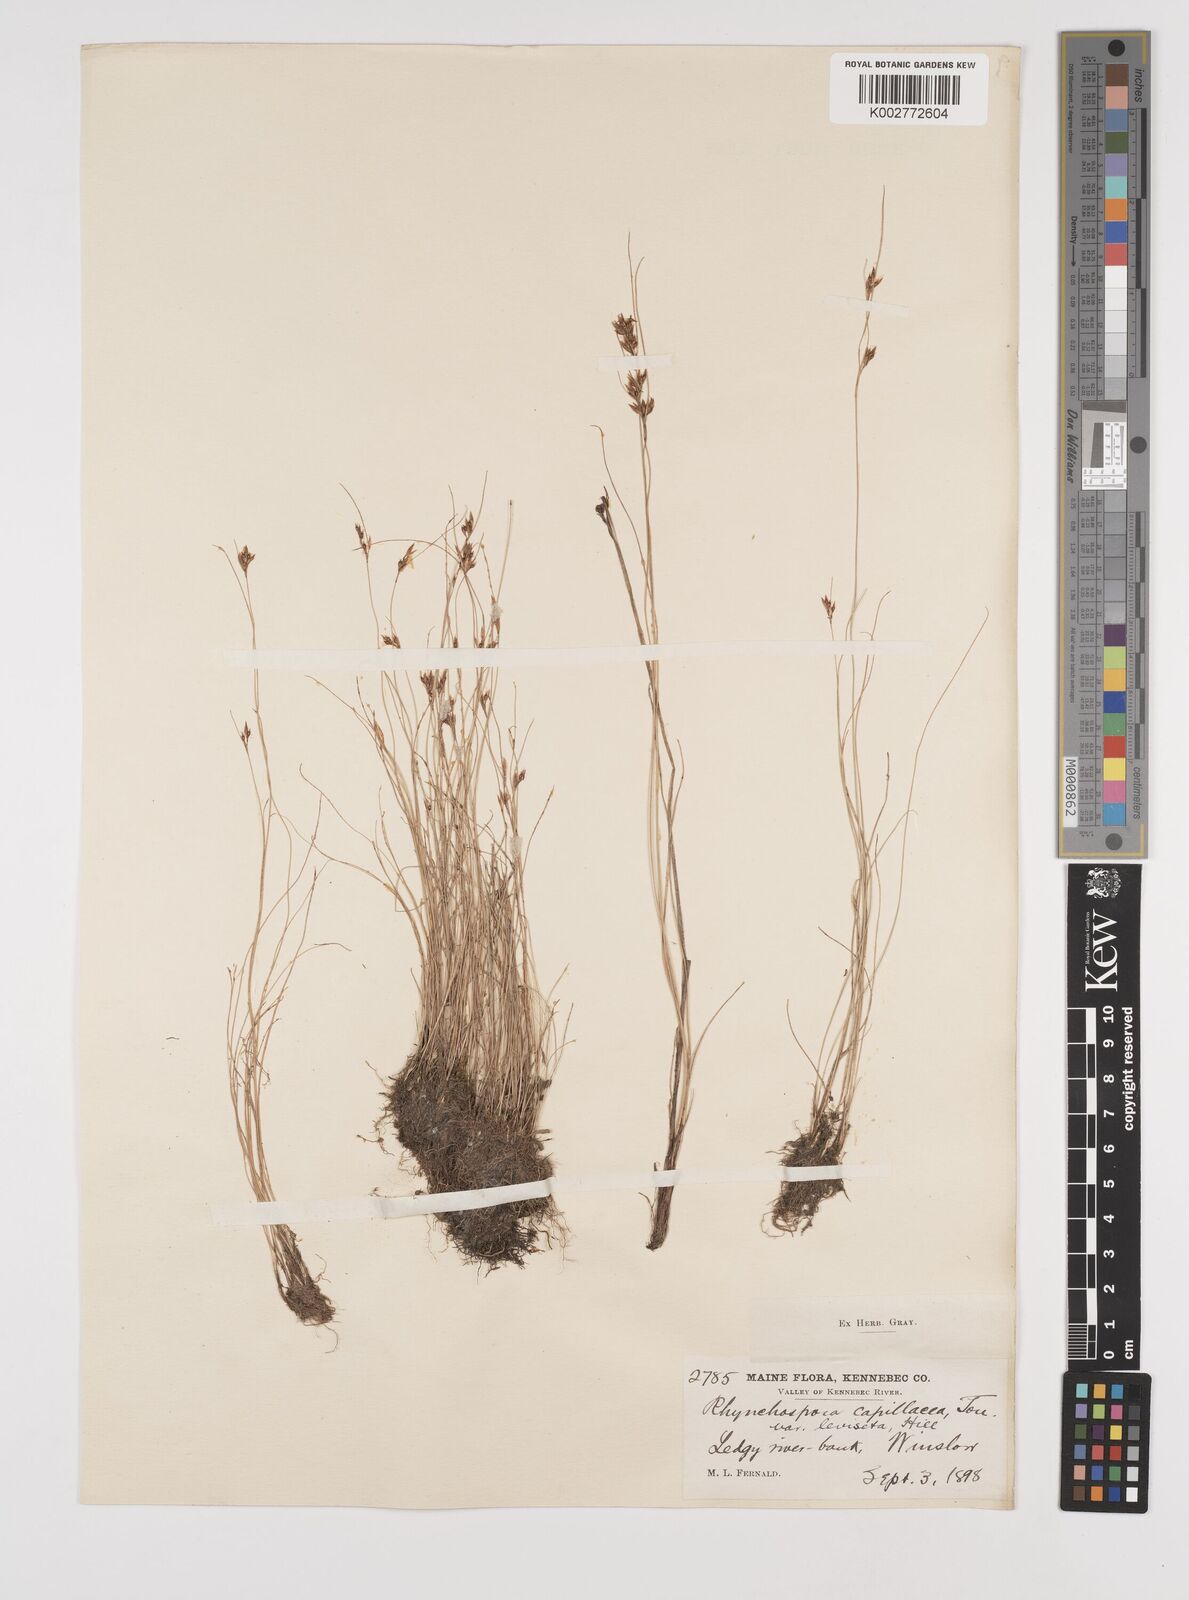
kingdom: Plantae
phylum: Tracheophyta
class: Liliopsida
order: Poales
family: Cyperaceae
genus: Rhynchospora
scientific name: Rhynchospora capillacea
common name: Capillary beakrush
